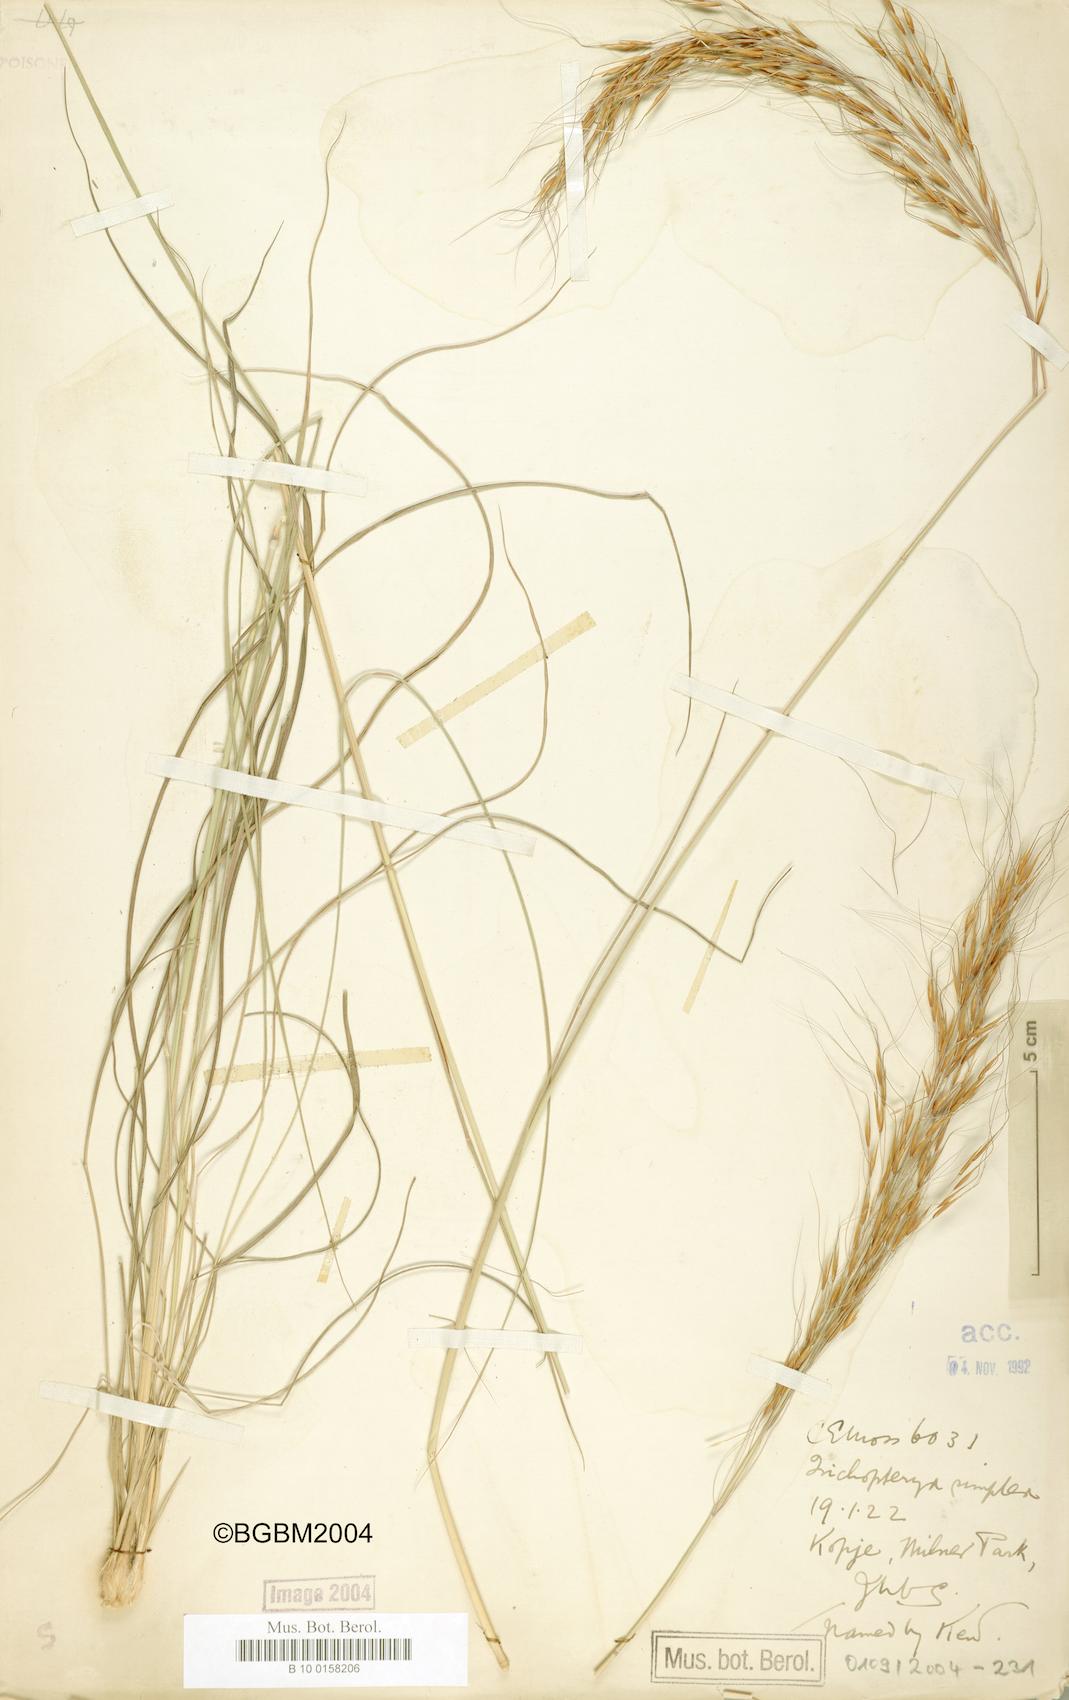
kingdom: Plantae
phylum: Tracheophyta
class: Liliopsida
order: Poales
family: Poaceae
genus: Loudetia
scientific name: Loudetia simplex
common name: Common russet grass
